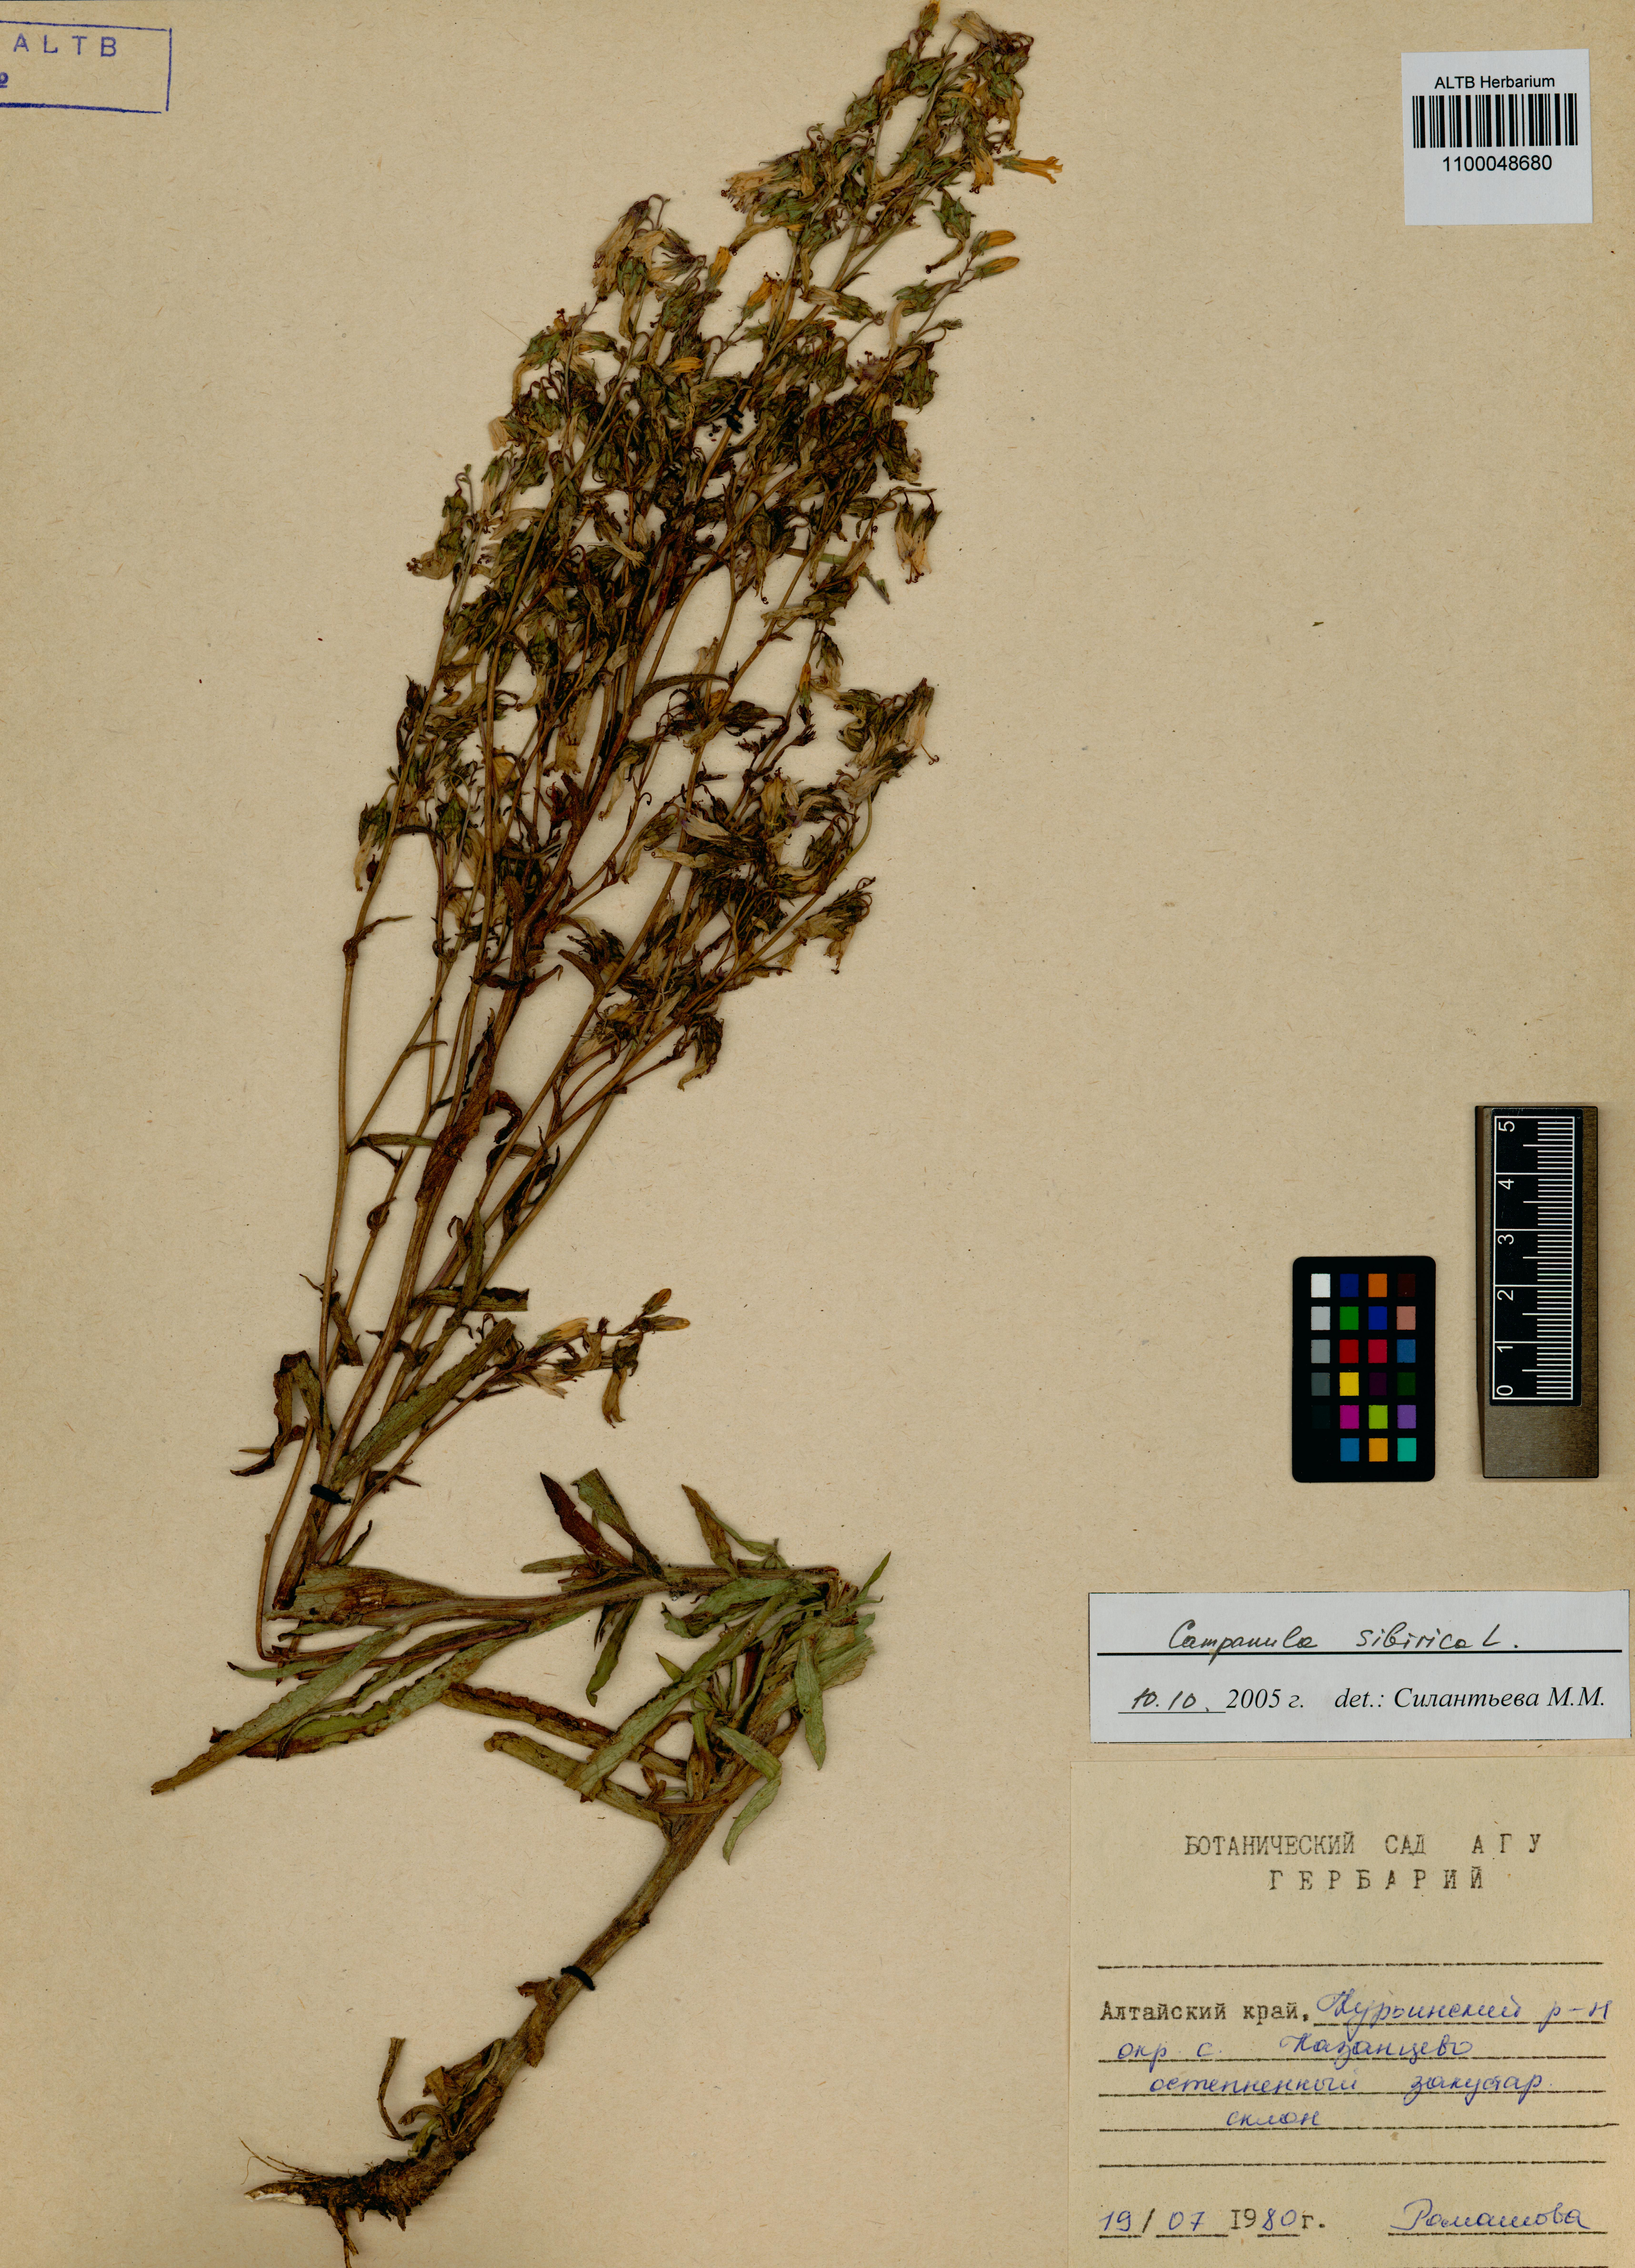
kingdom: Plantae
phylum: Tracheophyta
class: Magnoliopsida
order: Asterales
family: Campanulaceae
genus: Campanula
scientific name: Campanula sibirica
